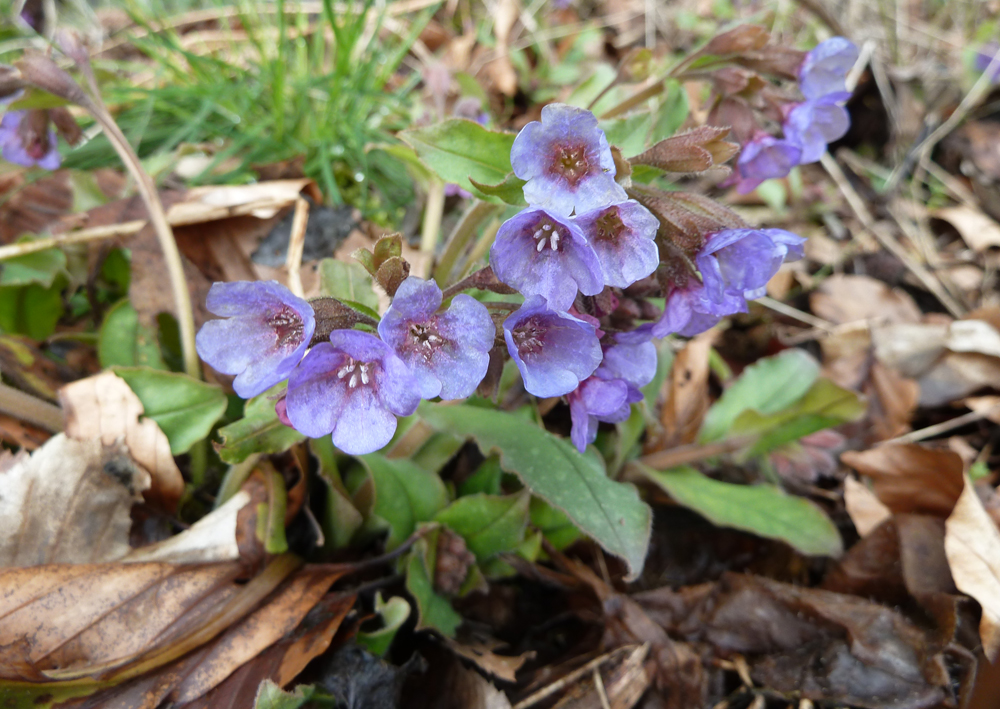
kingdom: Plantae
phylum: Tracheophyta
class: Magnoliopsida
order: Boraginales
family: Boraginaceae
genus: Pulmonaria
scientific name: Pulmonaria officinalis
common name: Lungwort
